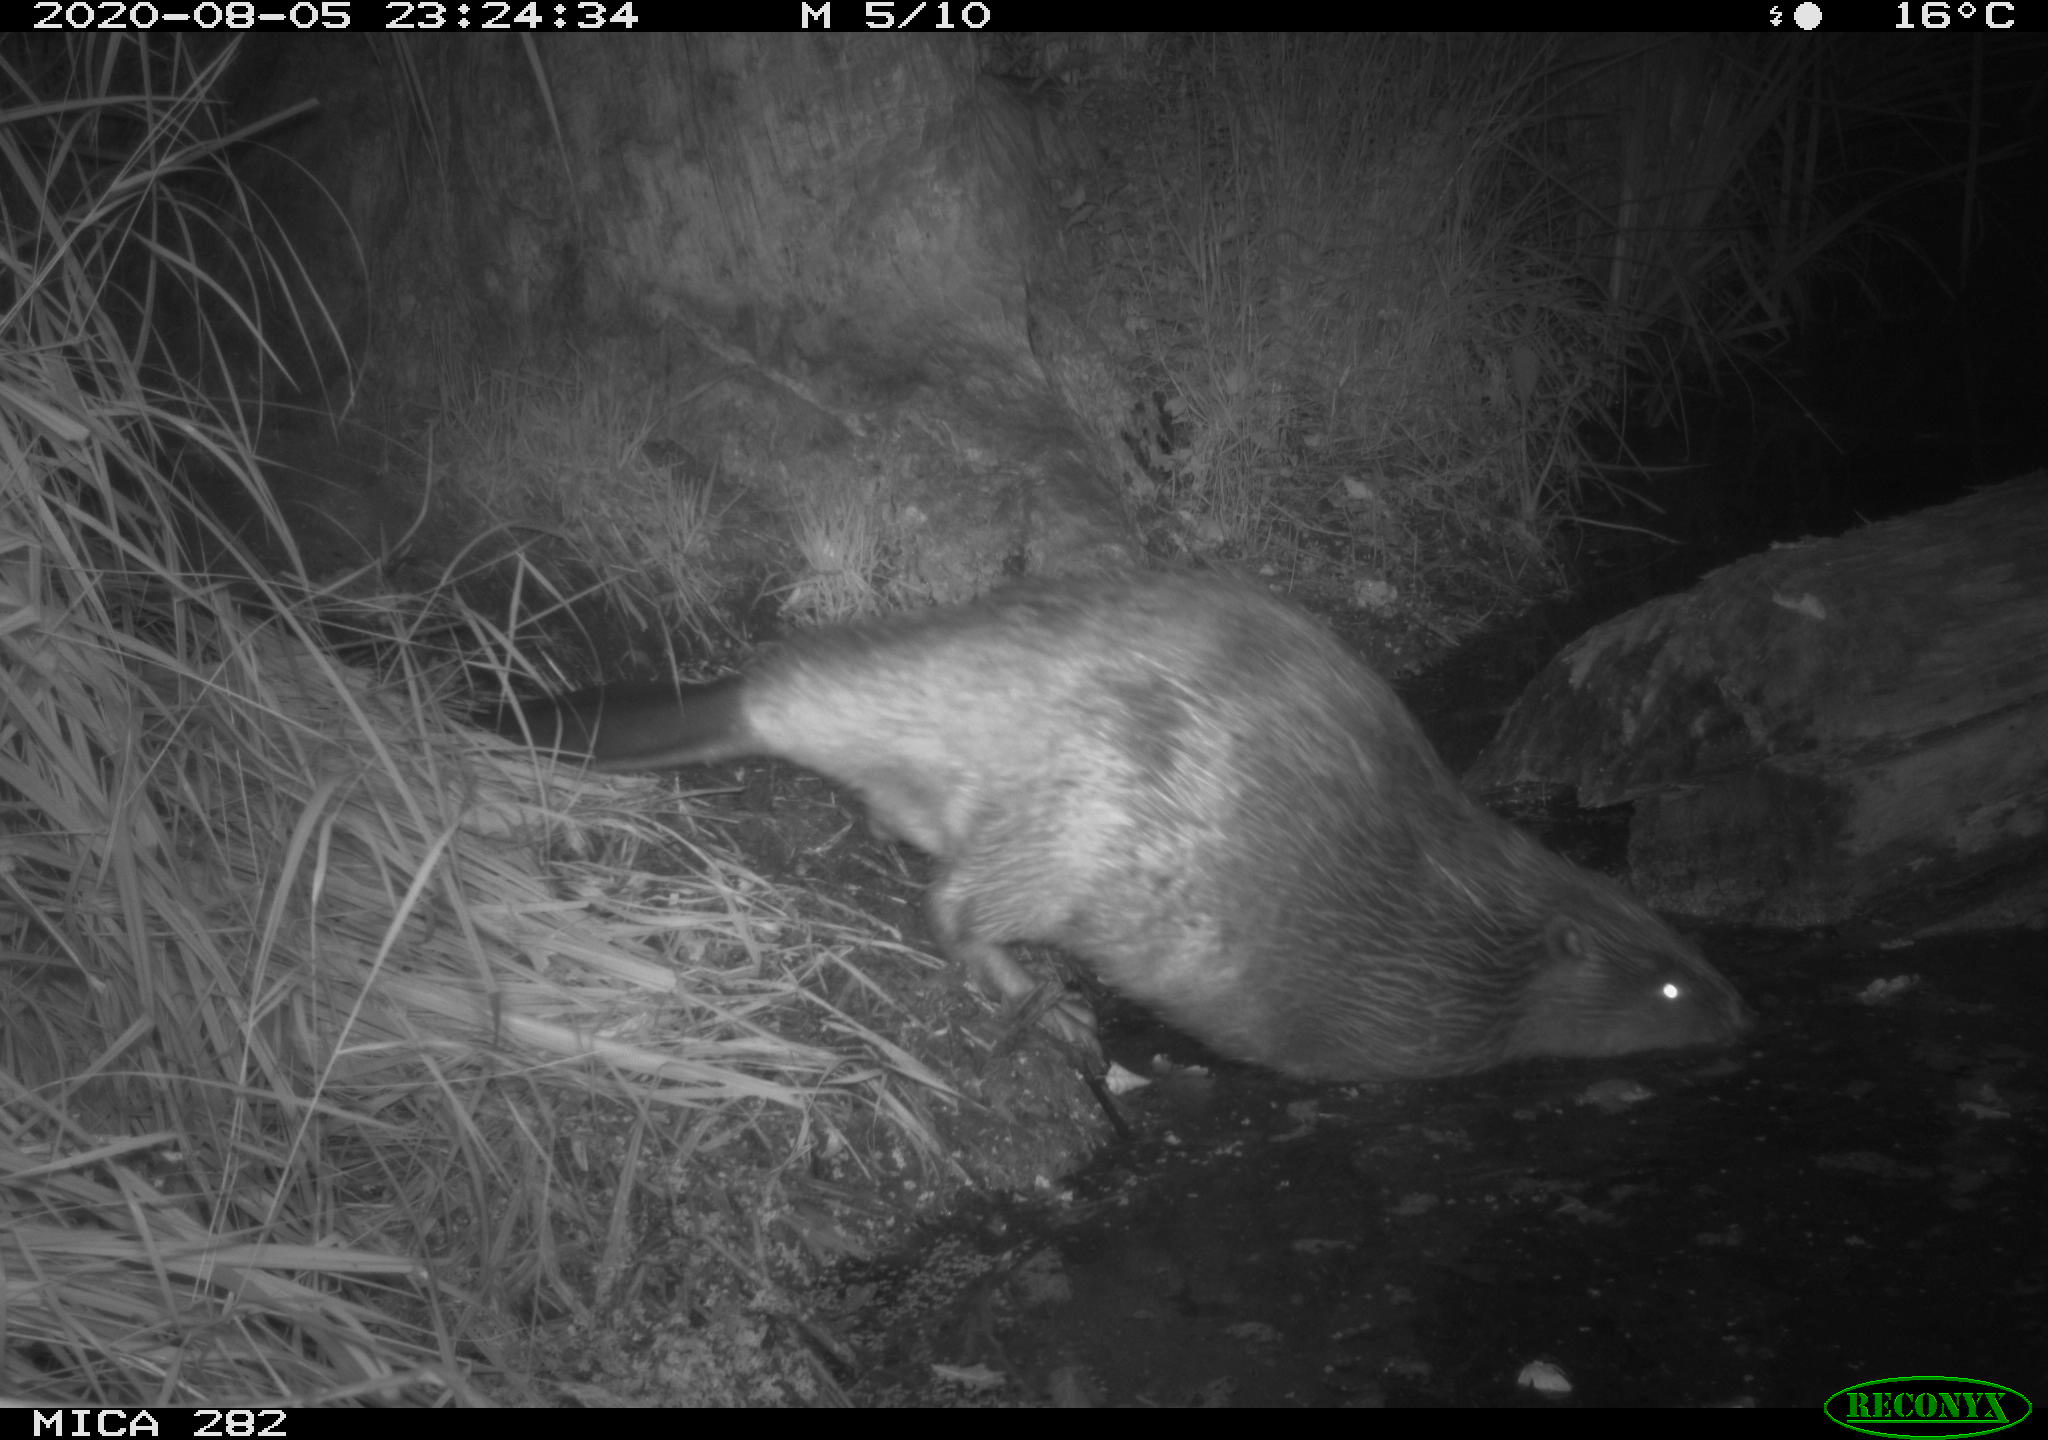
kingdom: Animalia
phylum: Chordata
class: Mammalia
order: Rodentia
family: Castoridae
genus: Castor
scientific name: Castor fiber
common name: Eurasian beaver
